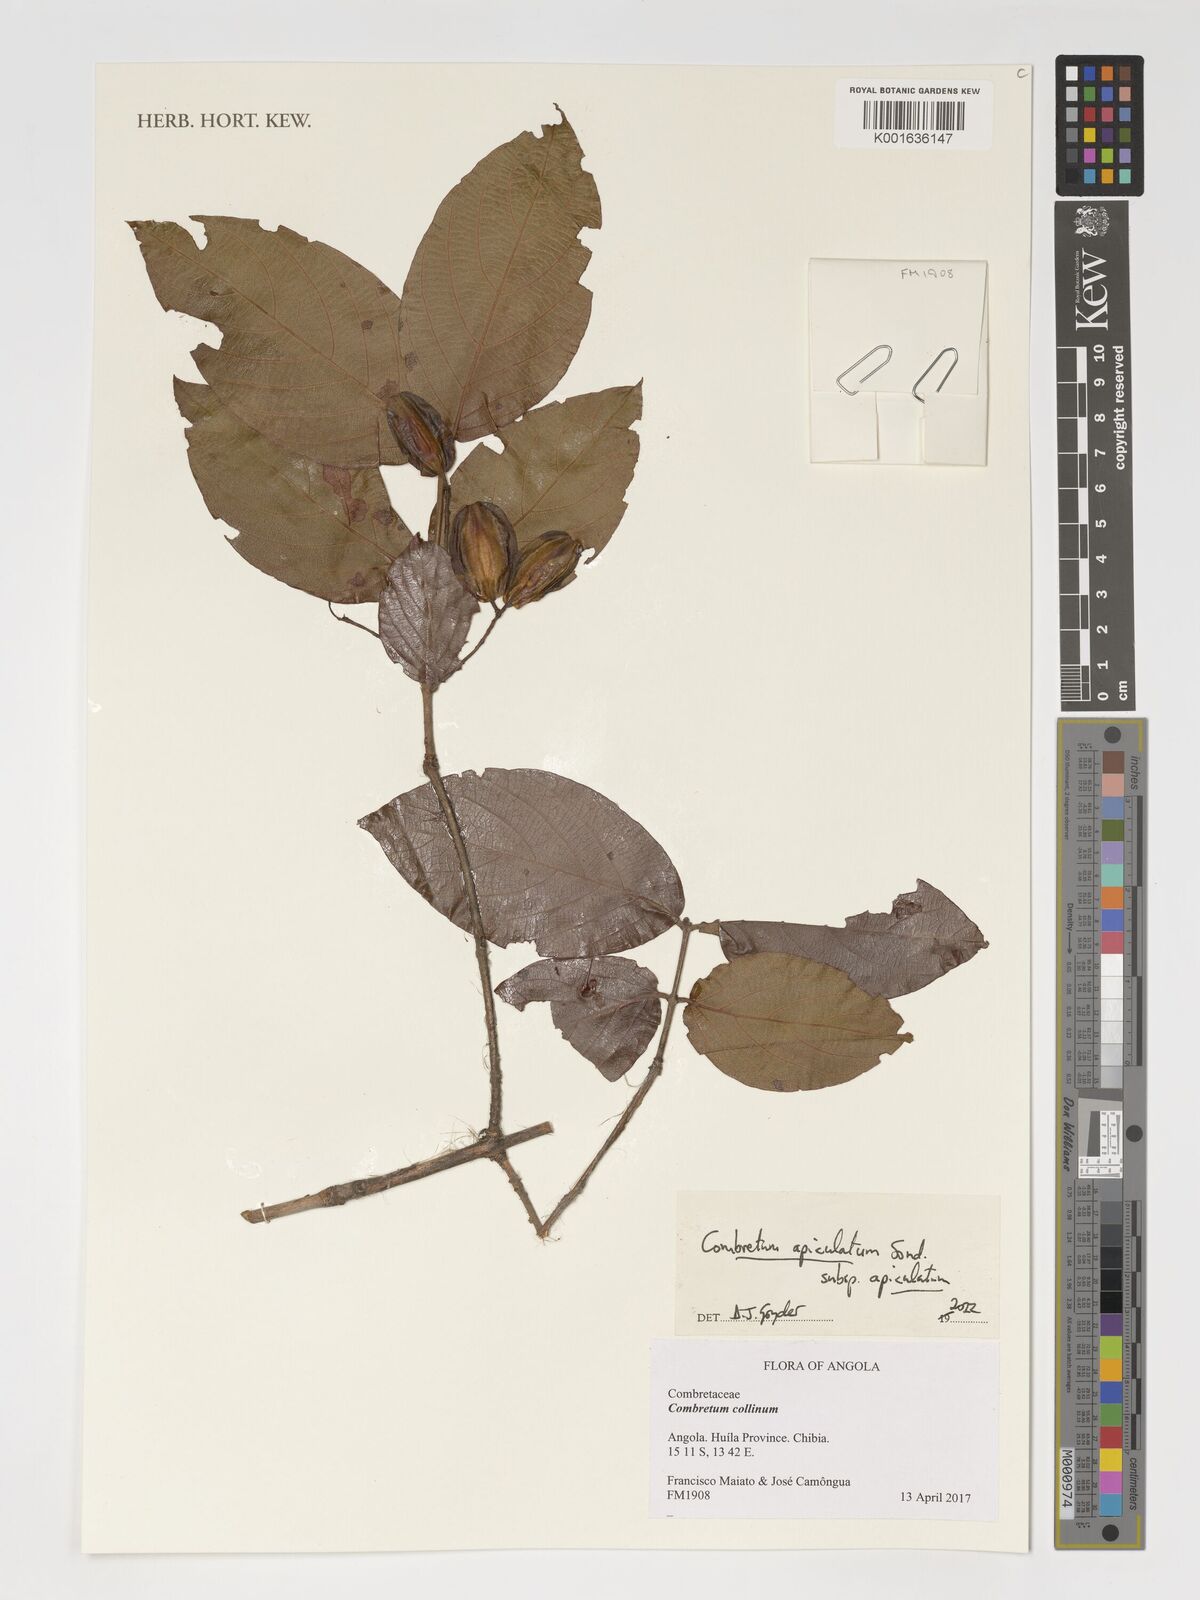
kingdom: Plantae
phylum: Tracheophyta
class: Magnoliopsida
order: Myrtales
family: Combretaceae
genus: Combretum
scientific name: Combretum apiculatum
